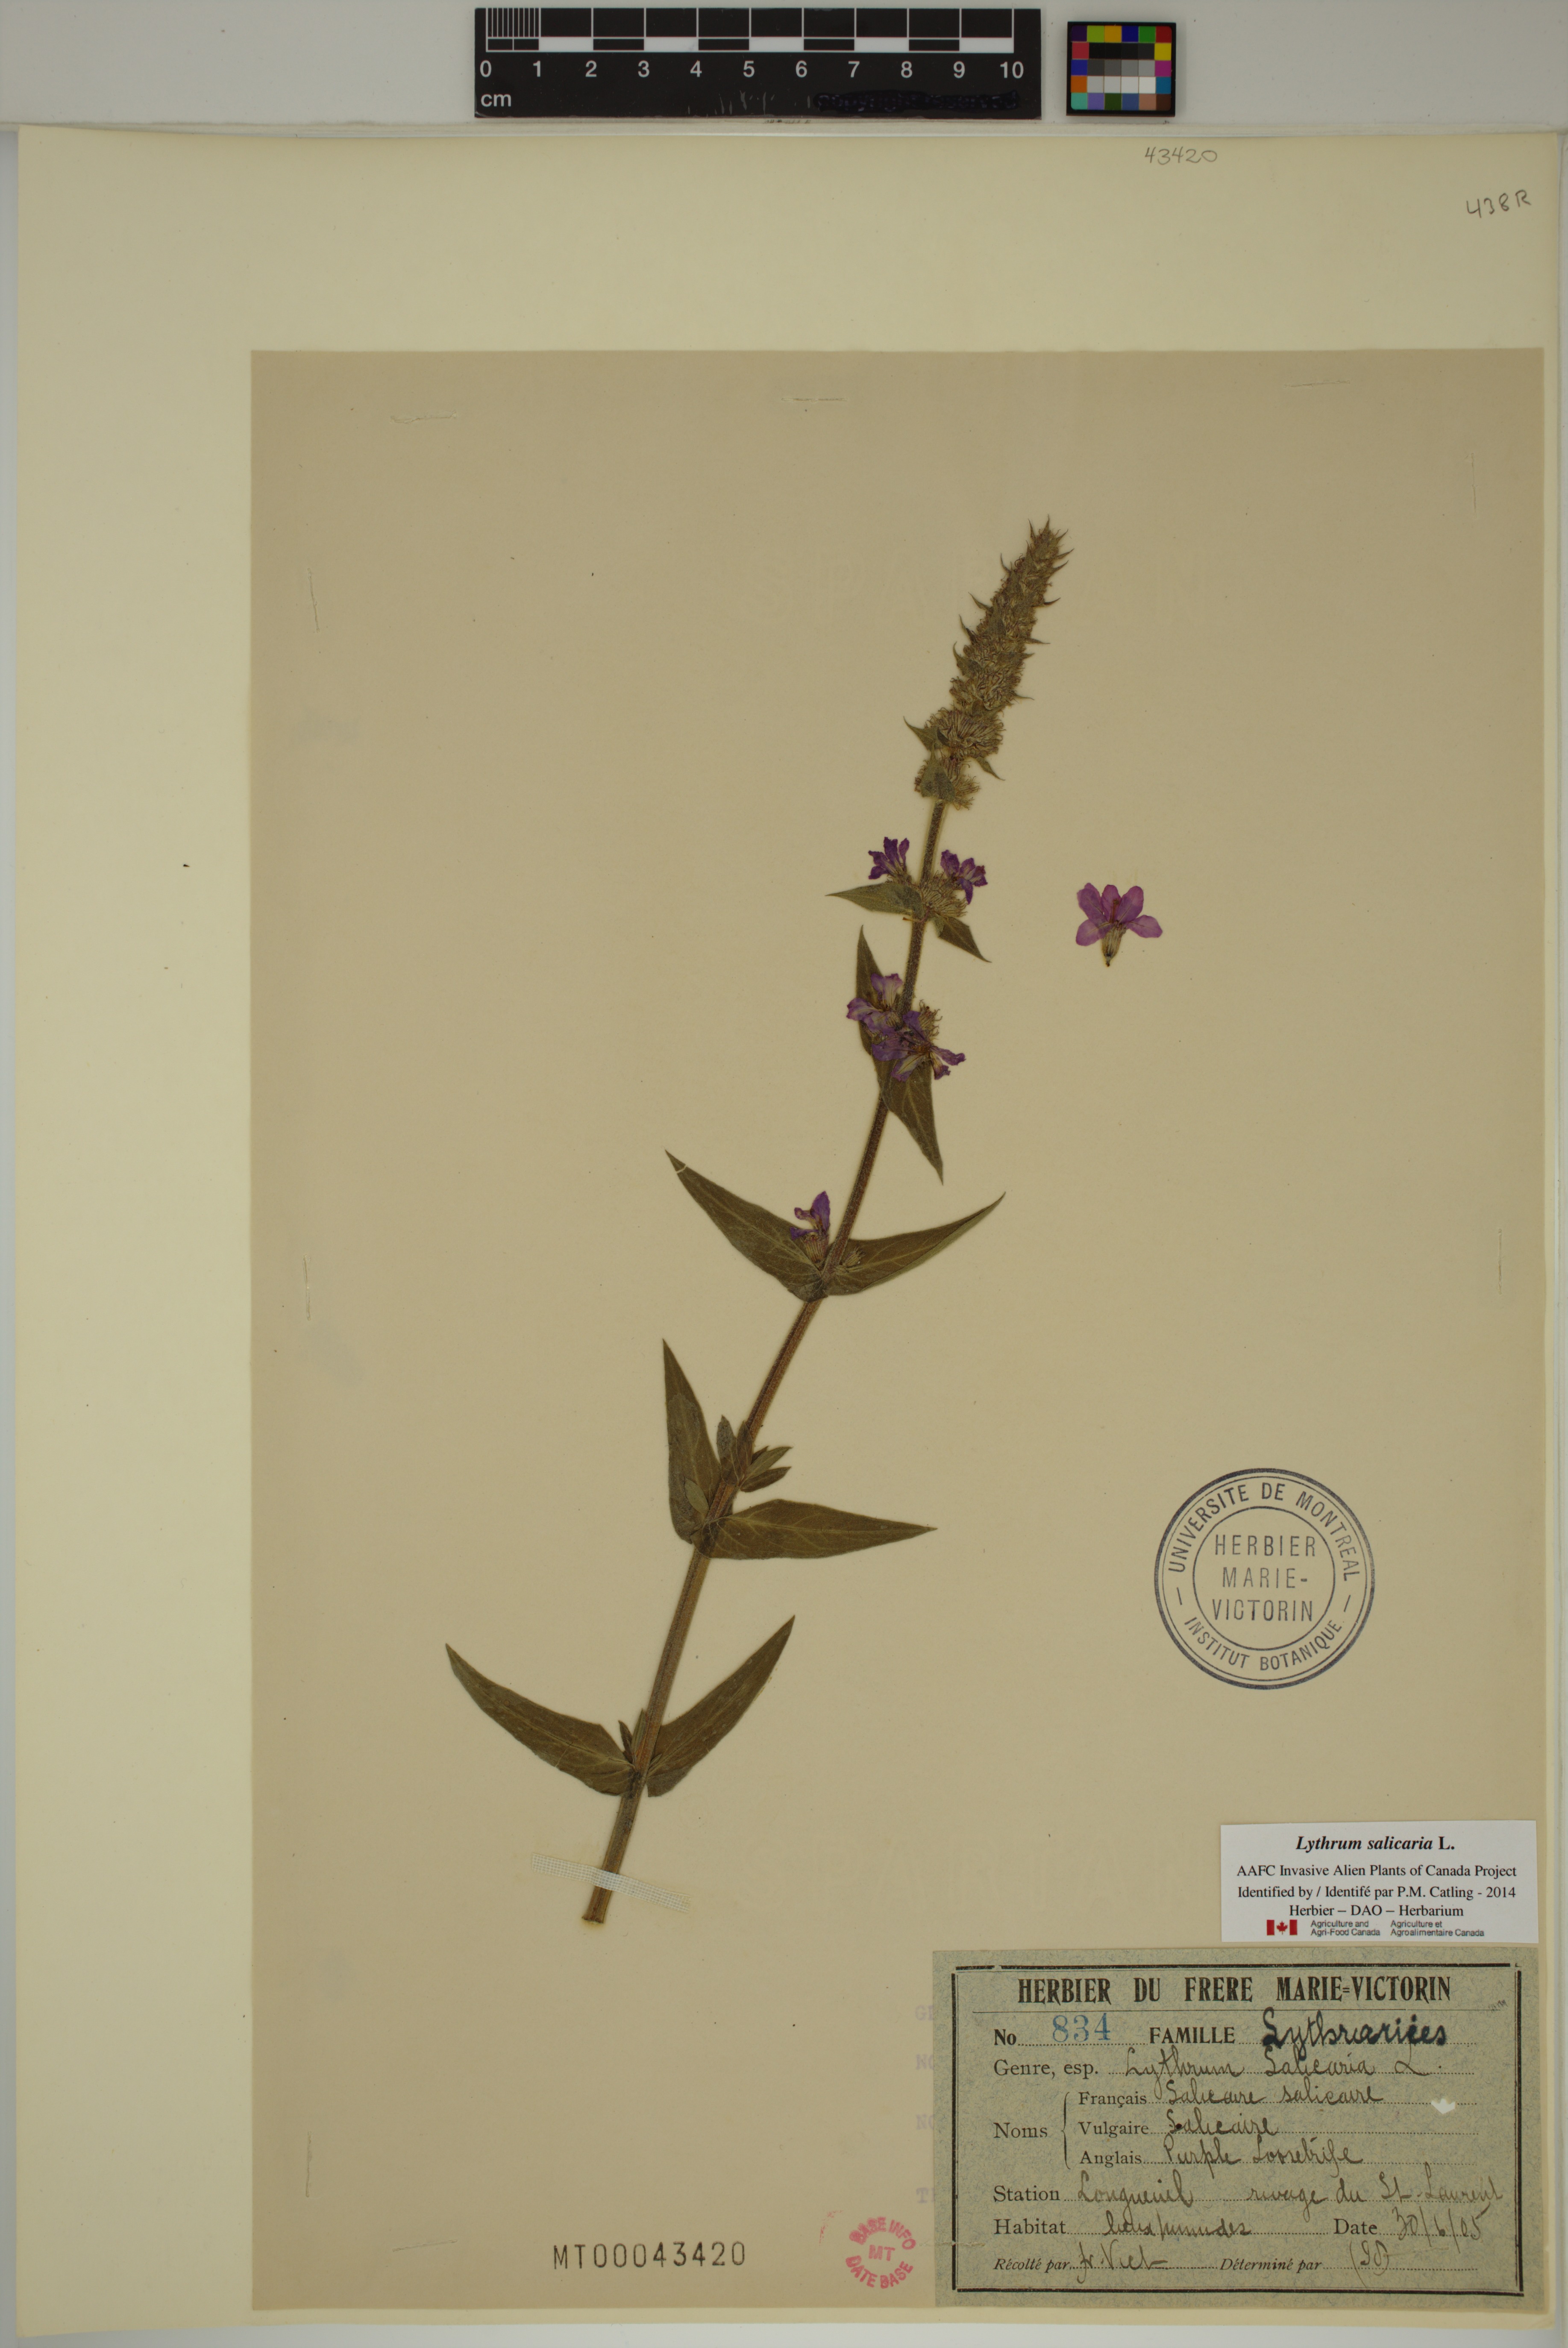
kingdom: Plantae
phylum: Tracheophyta
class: Magnoliopsida
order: Myrtales
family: Lythraceae
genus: Lythrum
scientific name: Lythrum salicaria
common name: Purple loosestrife
